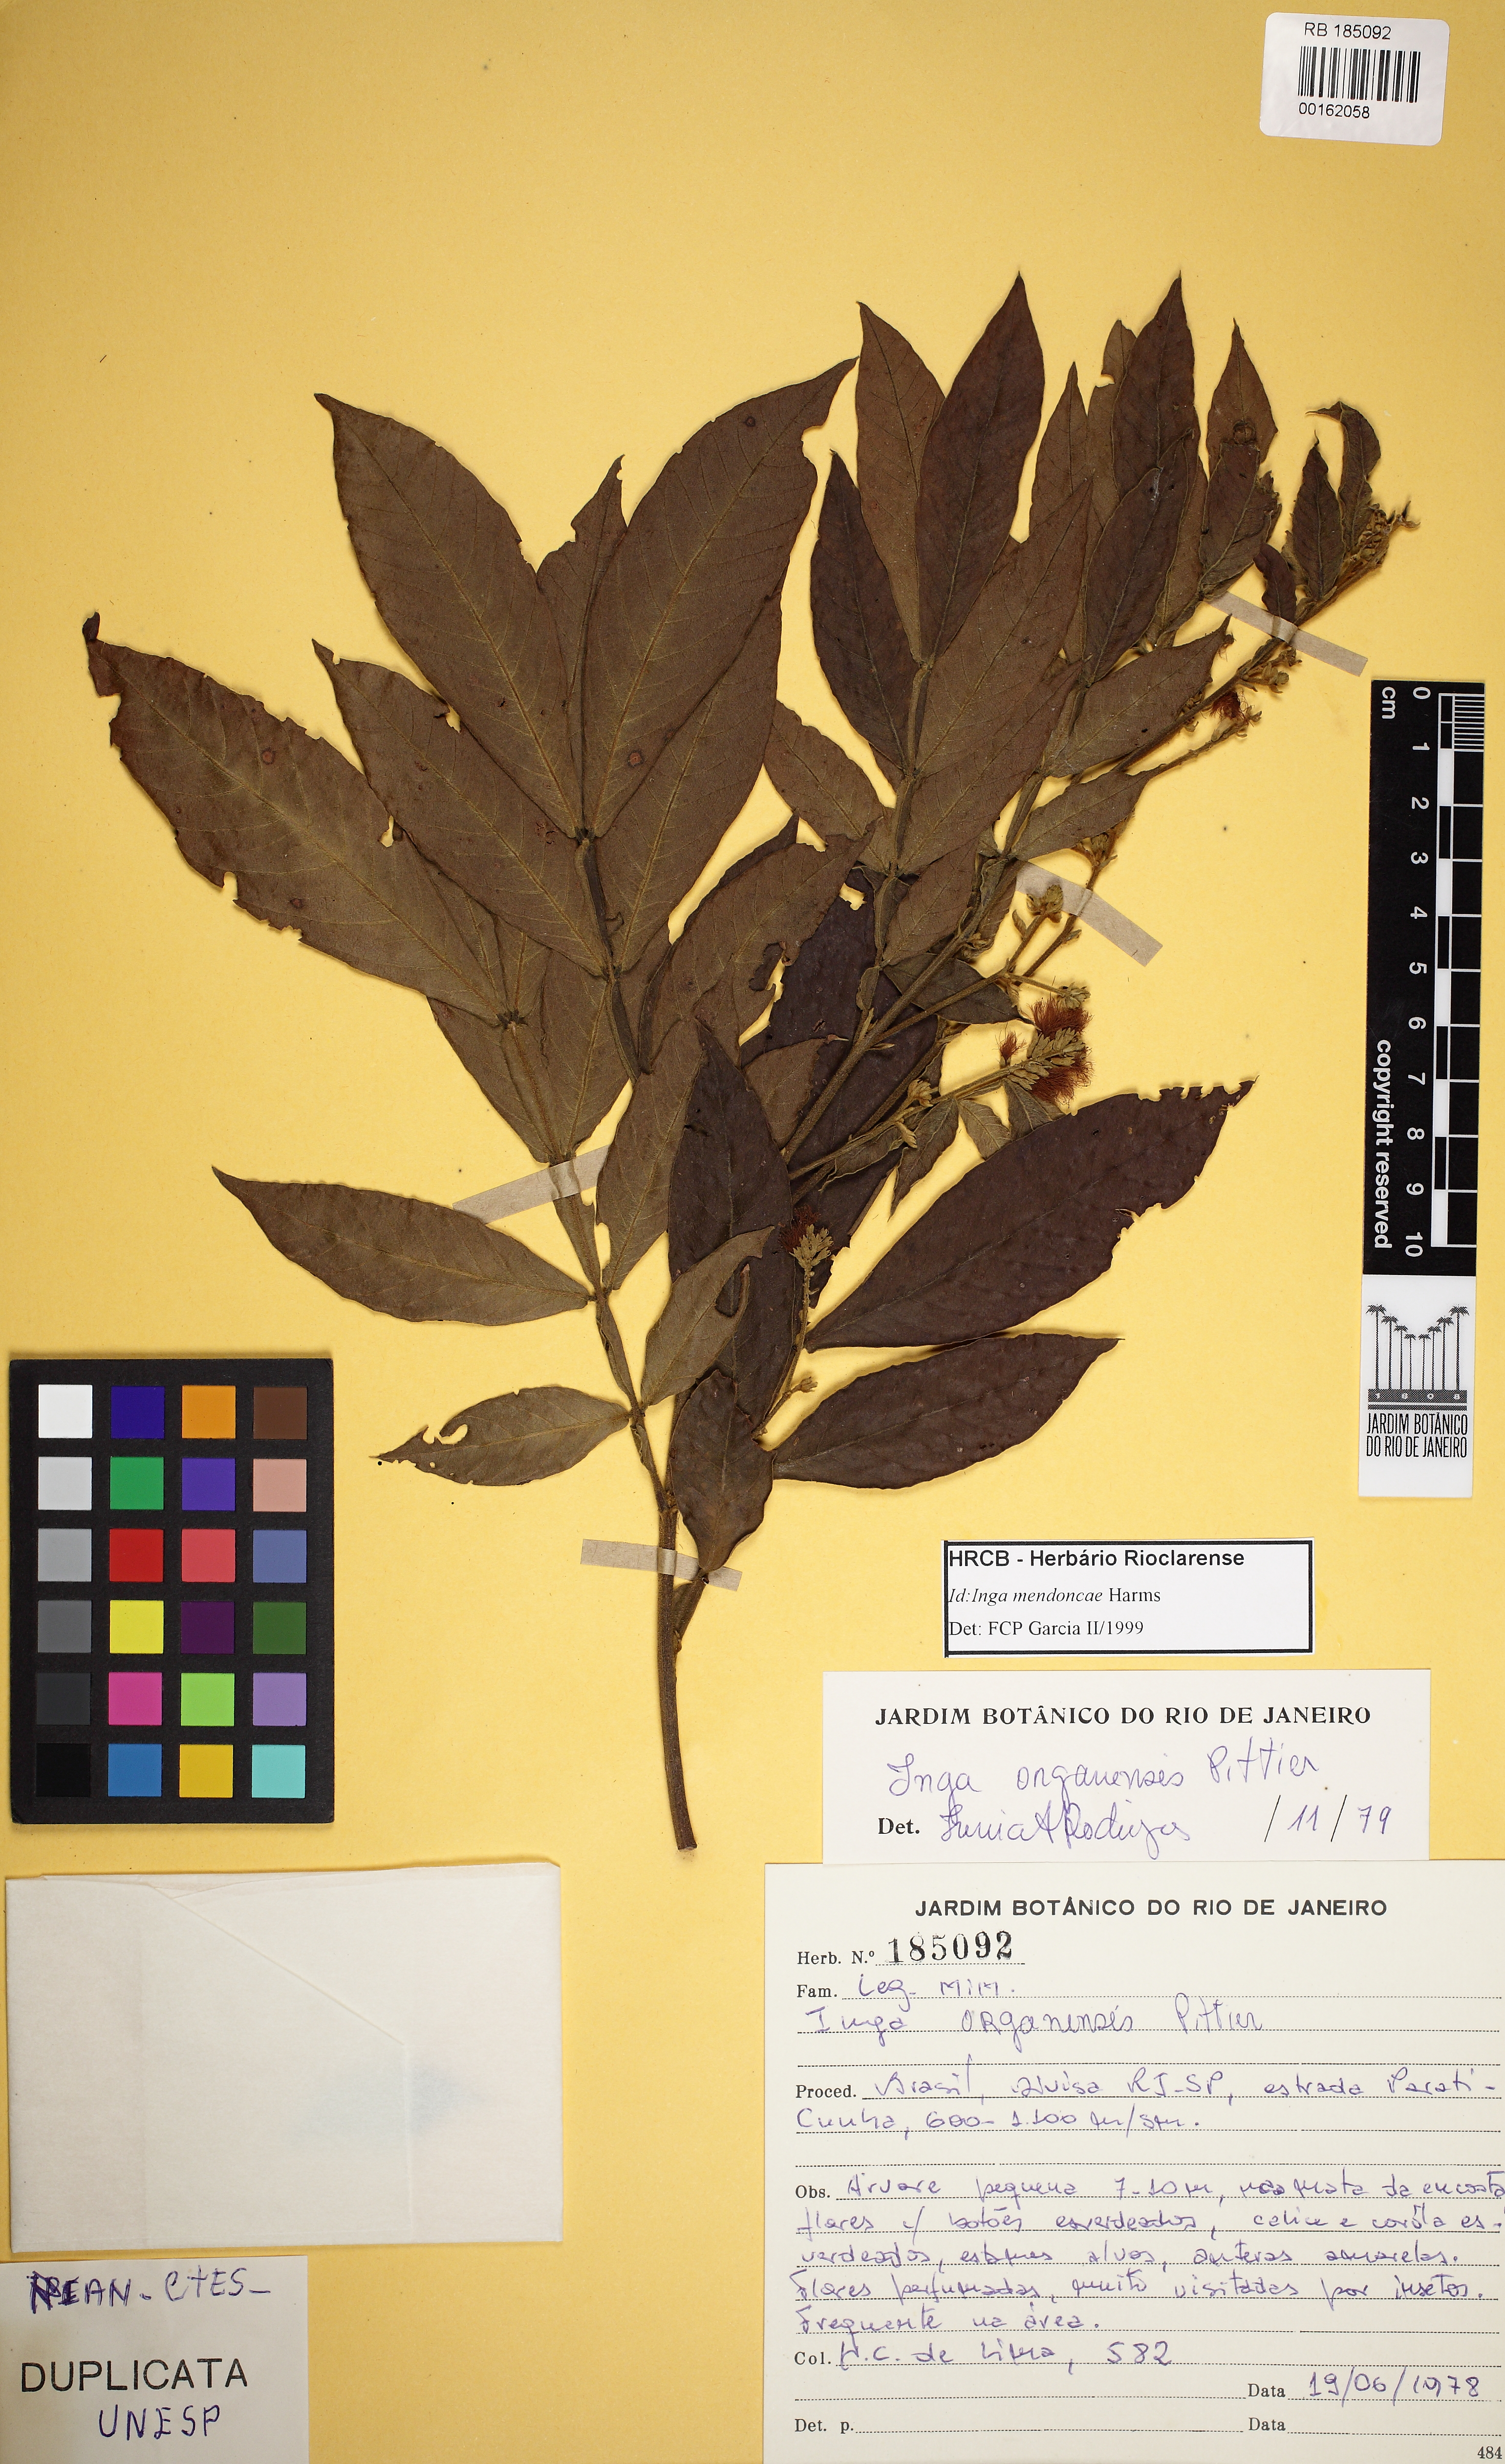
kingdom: Plantae
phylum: Tracheophyta
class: Magnoliopsida
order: Fabales
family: Fabaceae
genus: Inga
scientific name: Inga mendoncaei
